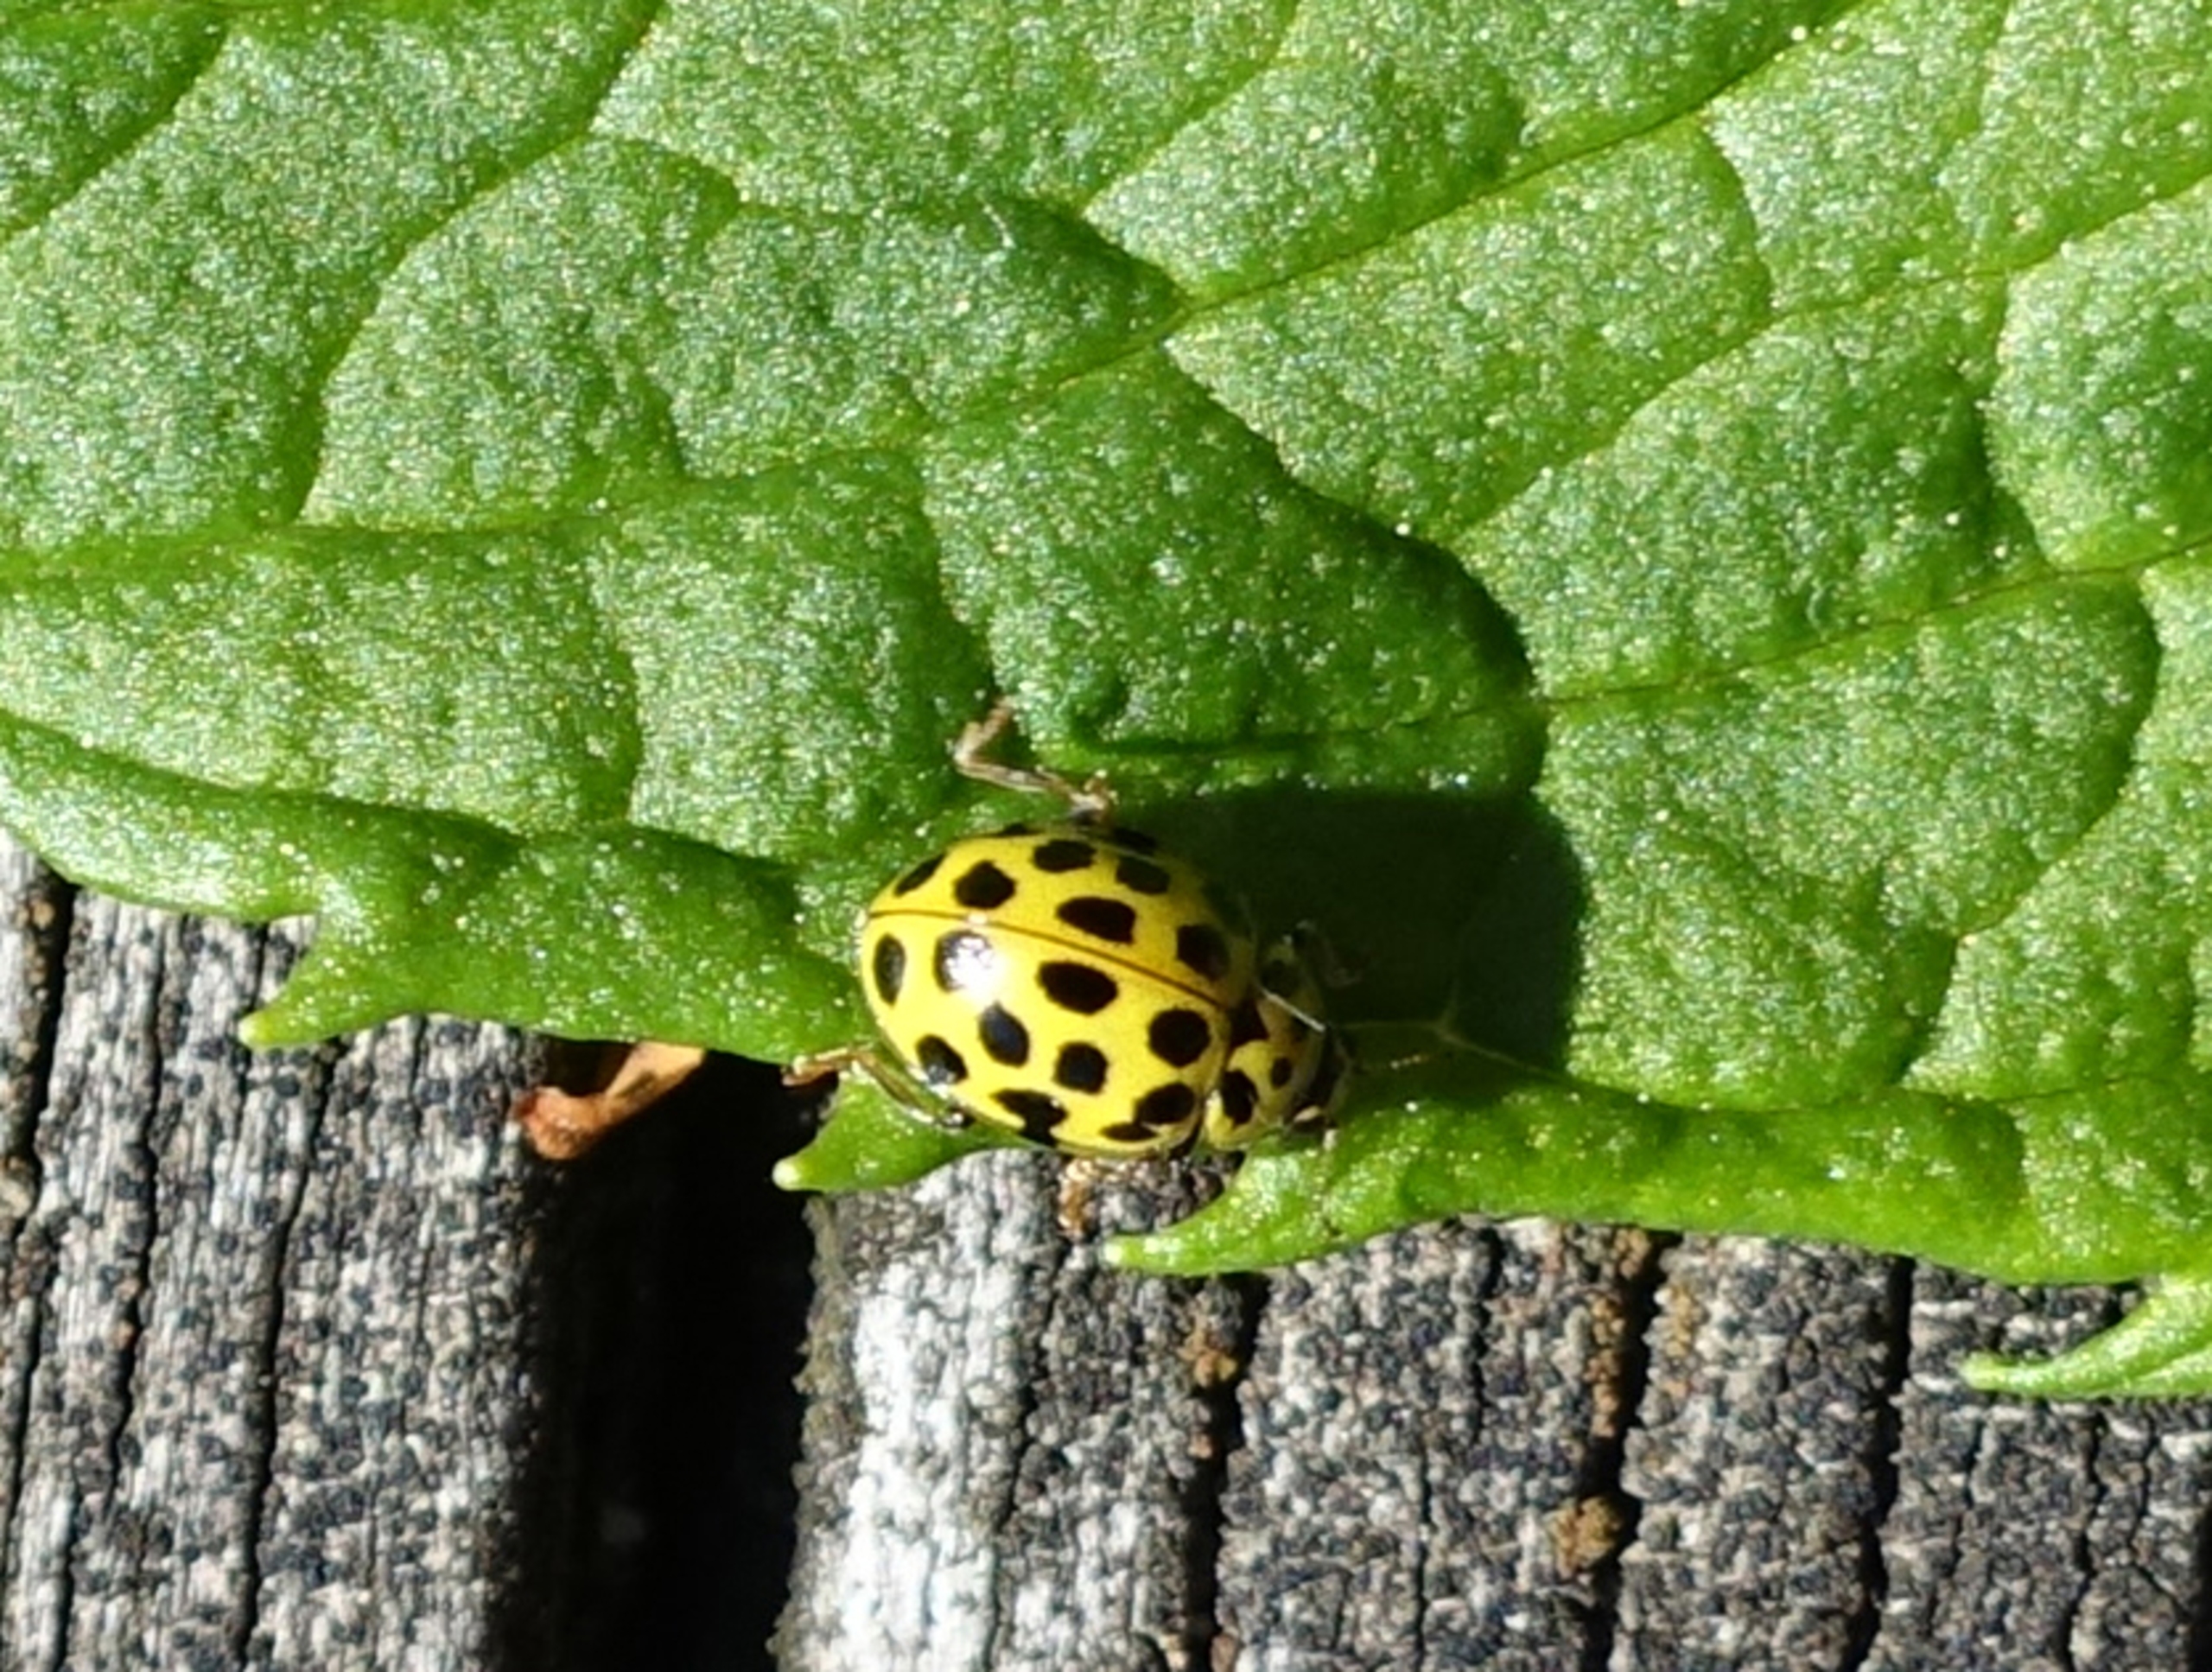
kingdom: Animalia
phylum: Arthropoda
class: Insecta
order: Coleoptera
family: Coccinellidae
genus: Psyllobora
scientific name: Psyllobora vigintiduopunctata
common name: Toogtyveplettet mariehøne
